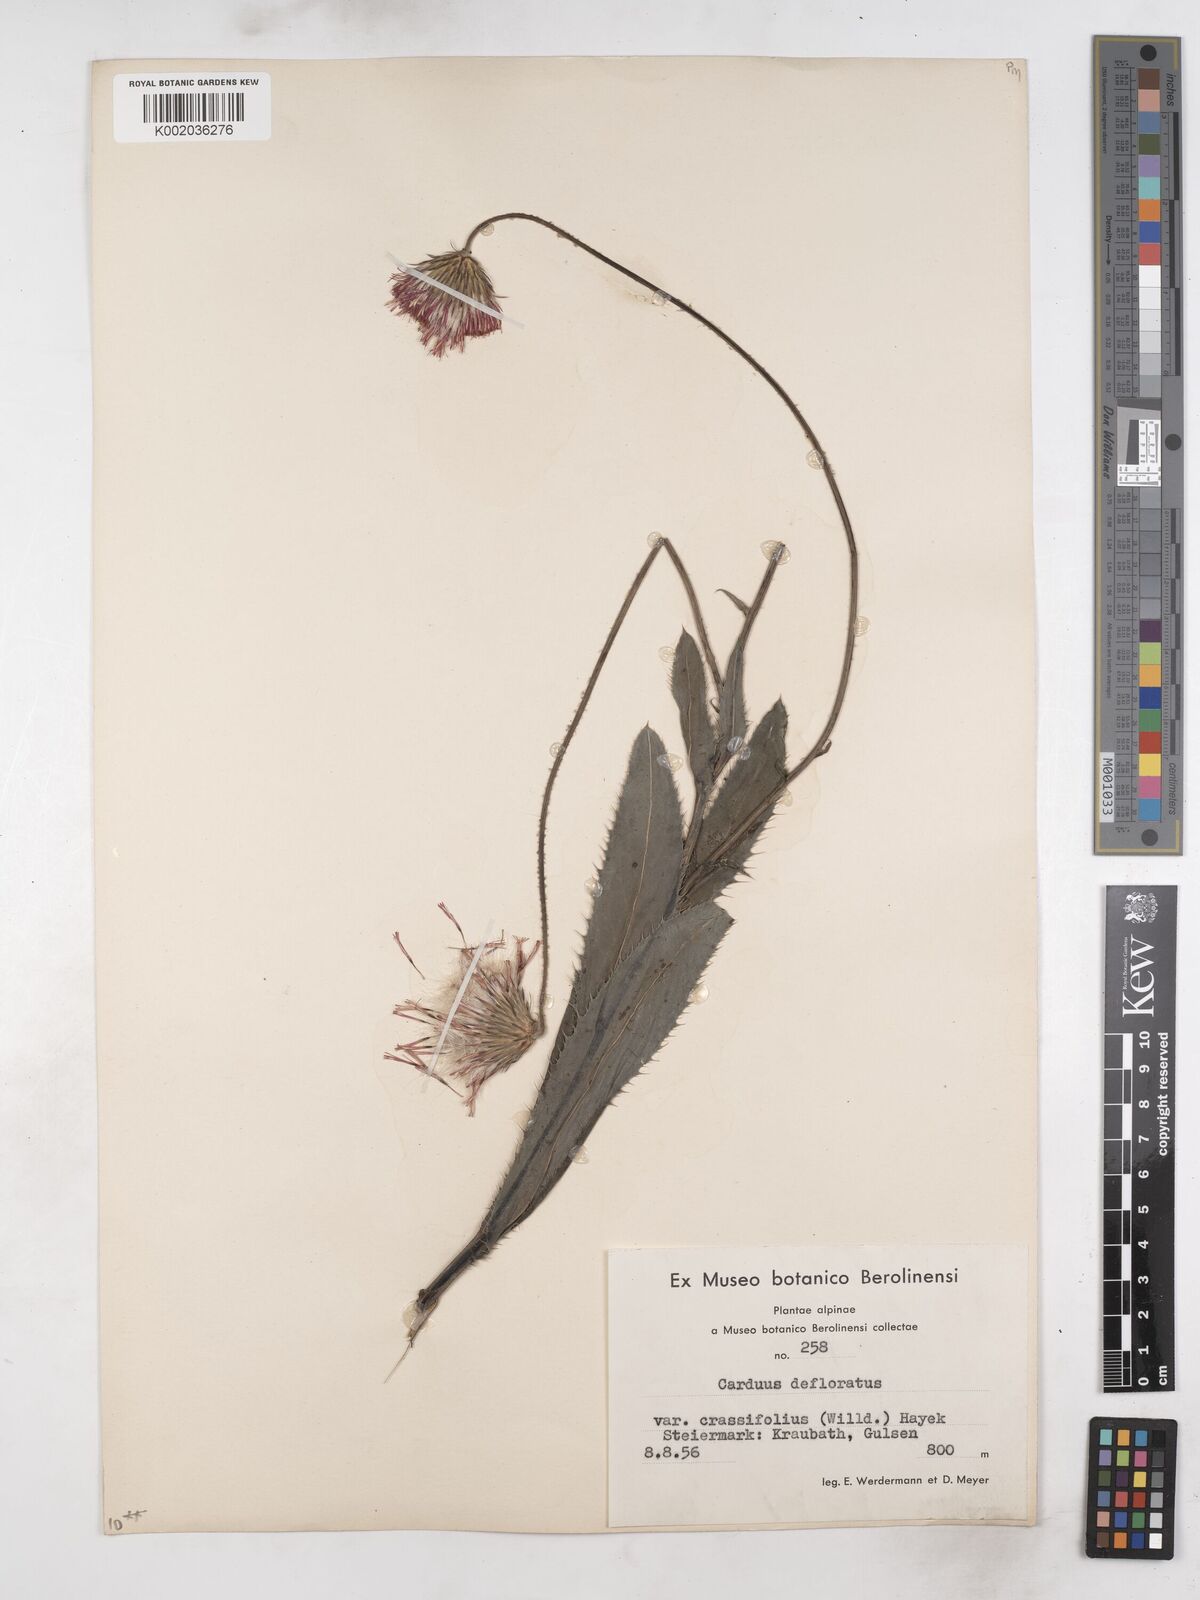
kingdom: Plantae
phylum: Tracheophyta
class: Magnoliopsida
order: Asterales
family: Asteraceae
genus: Carduus
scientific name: Carduus defloratus
